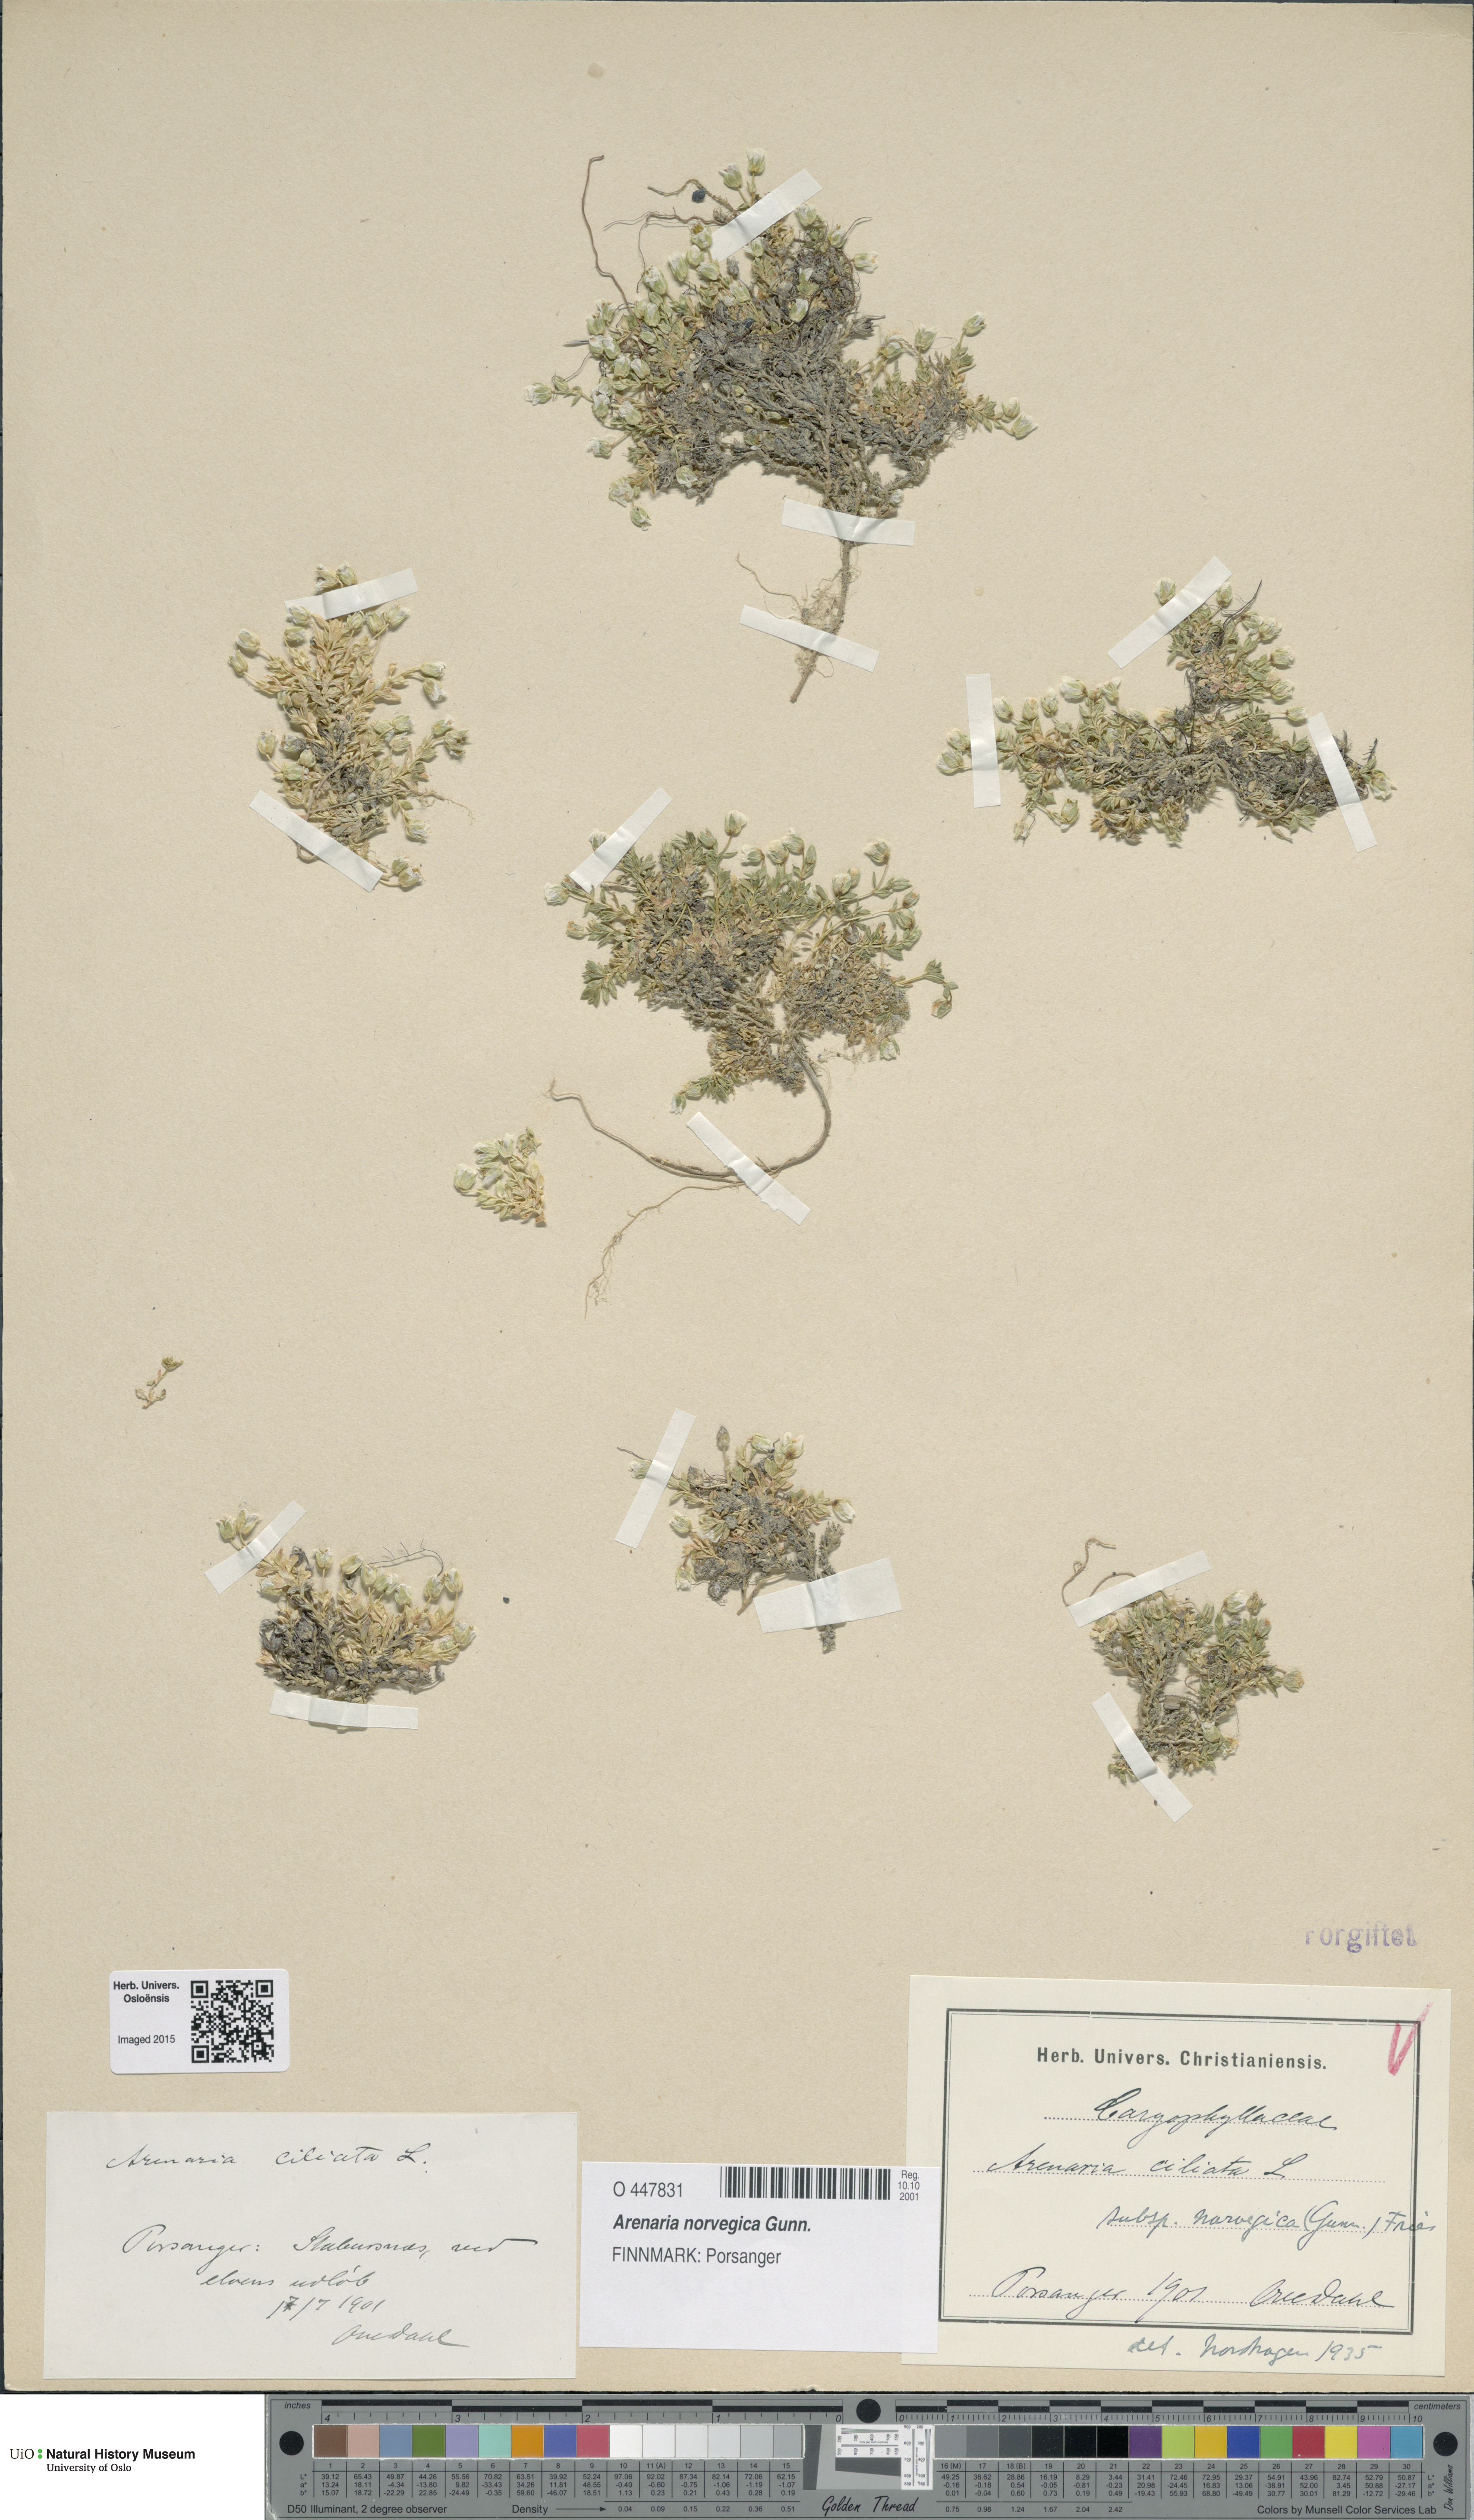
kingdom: Plantae
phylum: Tracheophyta
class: Magnoliopsida
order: Caryophyllales
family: Caryophyllaceae
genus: Arenaria
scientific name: Arenaria norvegica
